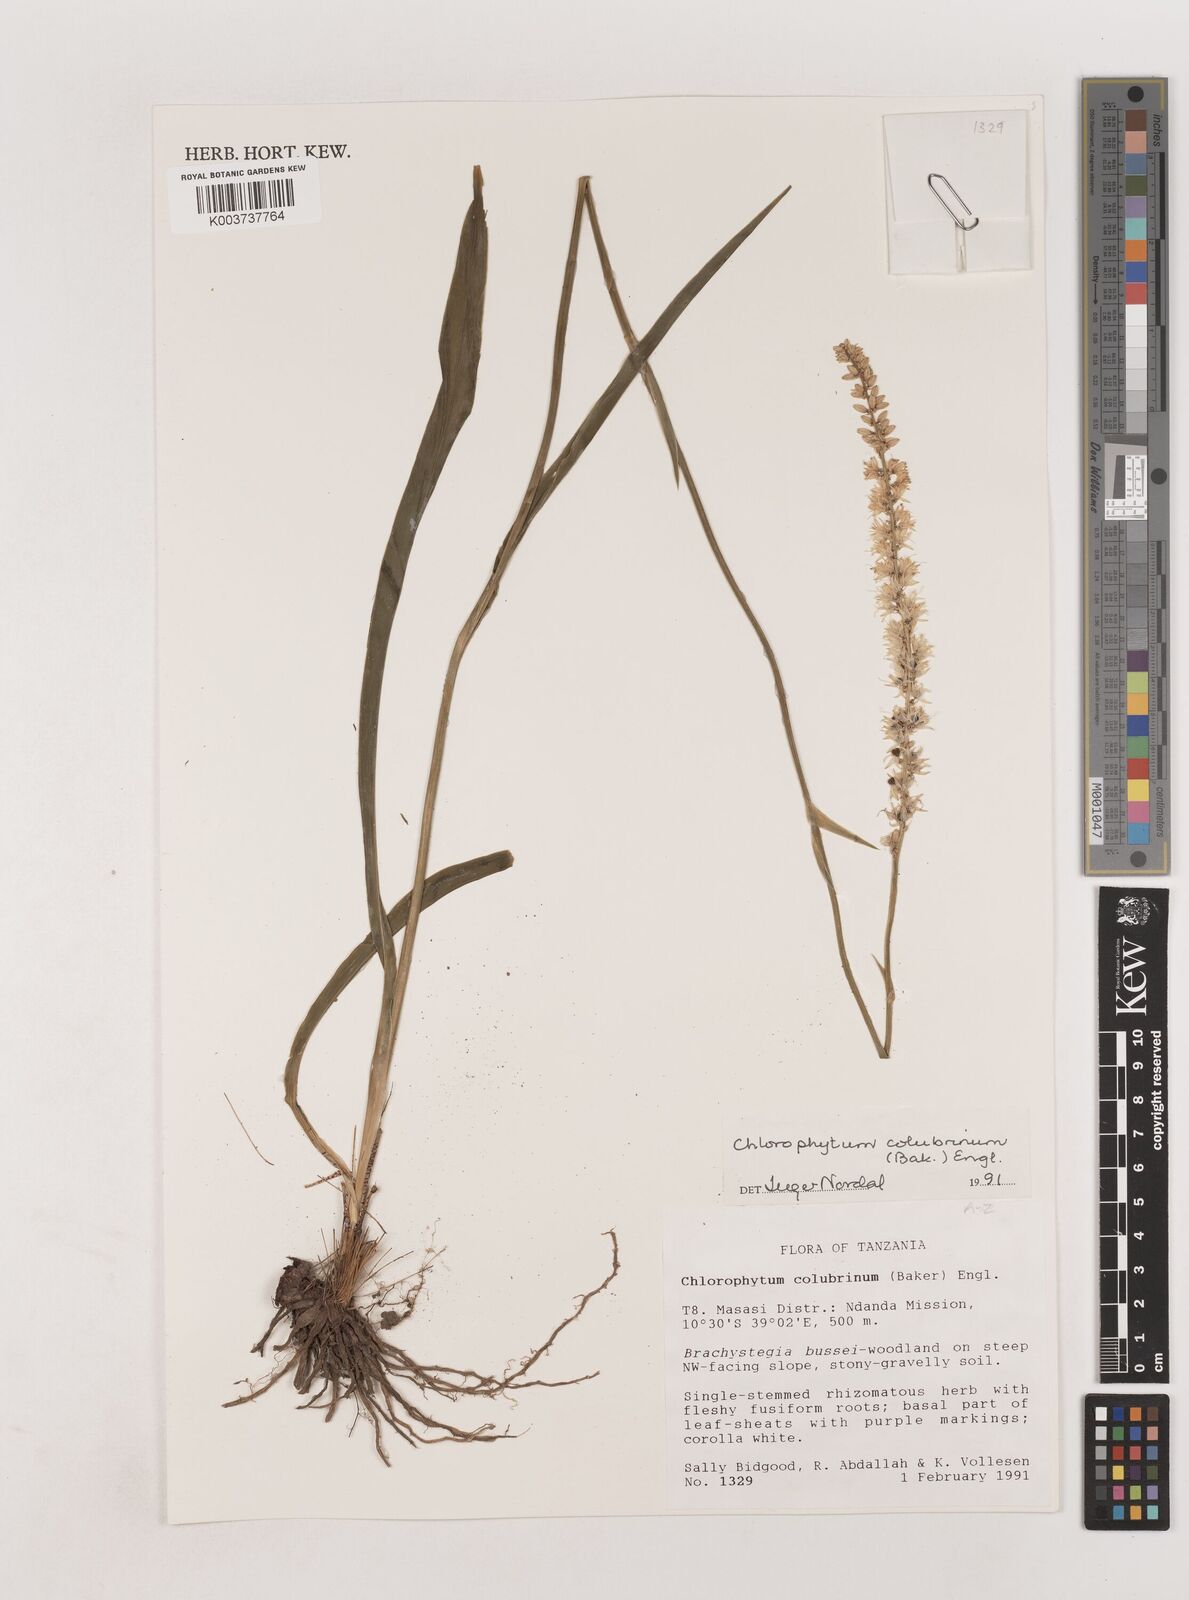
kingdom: Plantae
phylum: Tracheophyta
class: Liliopsida
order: Asparagales
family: Asparagaceae
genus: Chlorophytum
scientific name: Chlorophytum colubrinum
